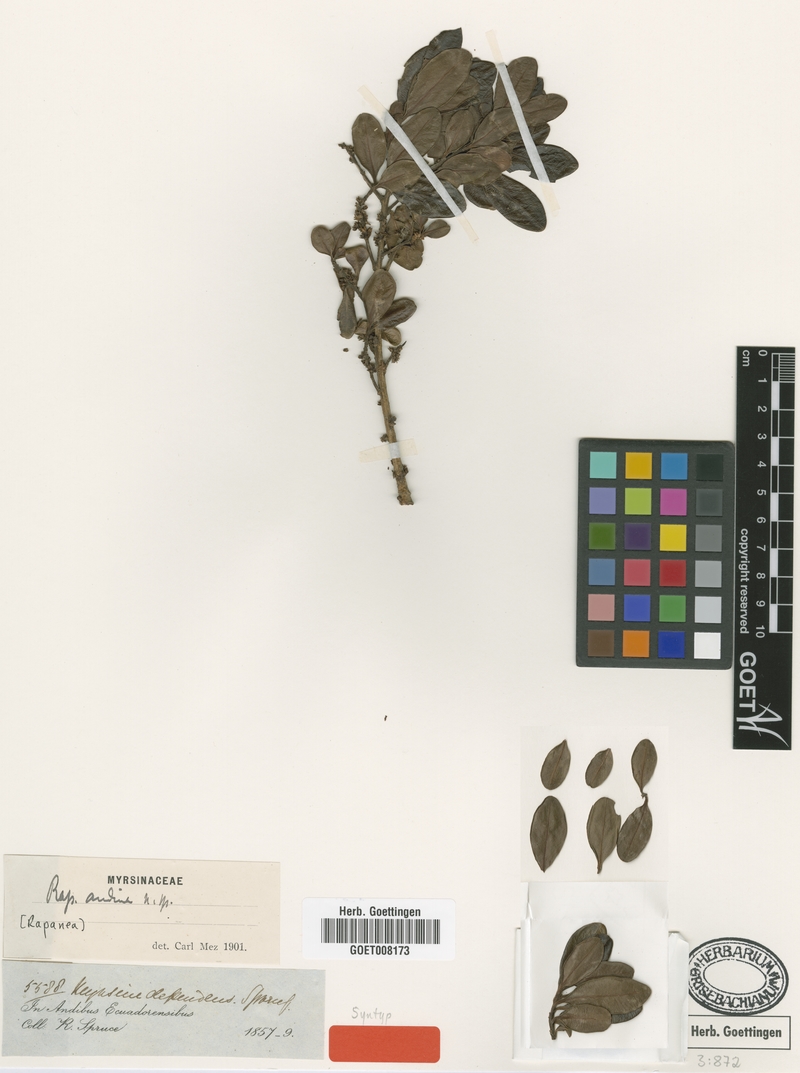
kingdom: Plantae
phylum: Tracheophyta
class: Magnoliopsida
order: Ericales
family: Primulaceae
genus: Myrsine
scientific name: Myrsine andina
